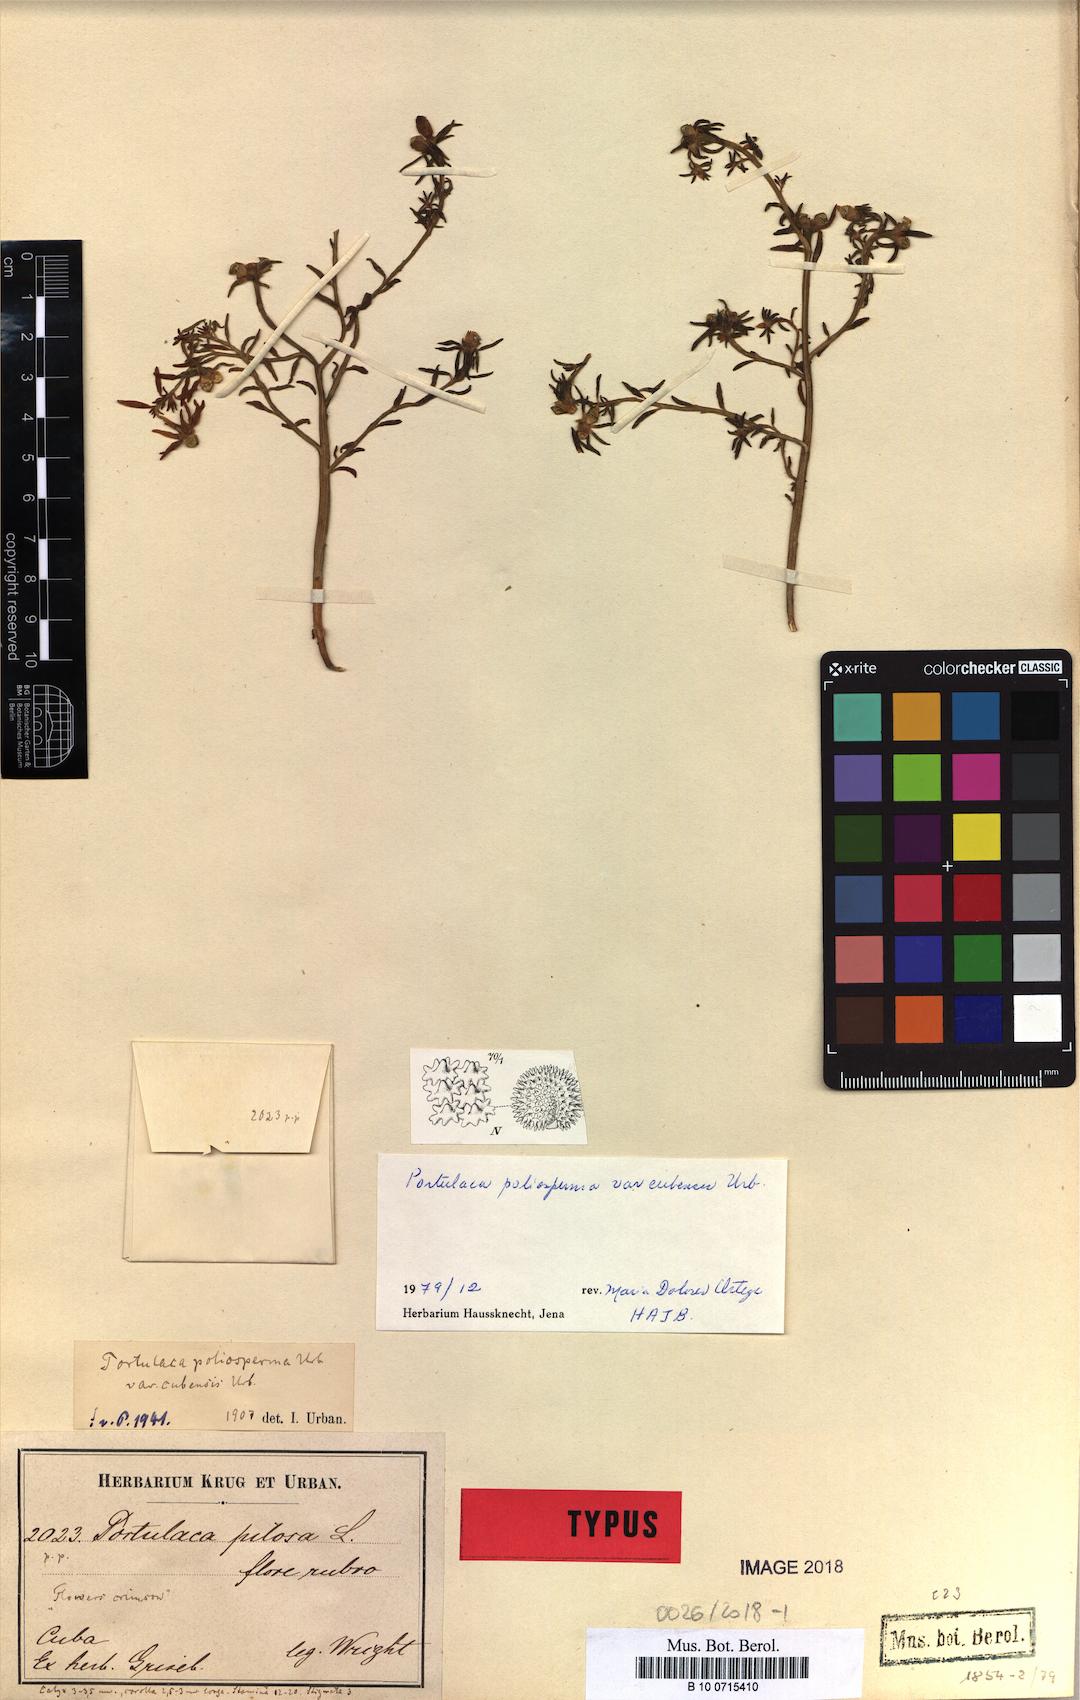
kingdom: Plantae
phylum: Tracheophyta
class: Magnoliopsida
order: Caryophyllales
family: Portulacaceae
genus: Portulaca
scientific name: Portulaca biloba
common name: Cuban purslane
